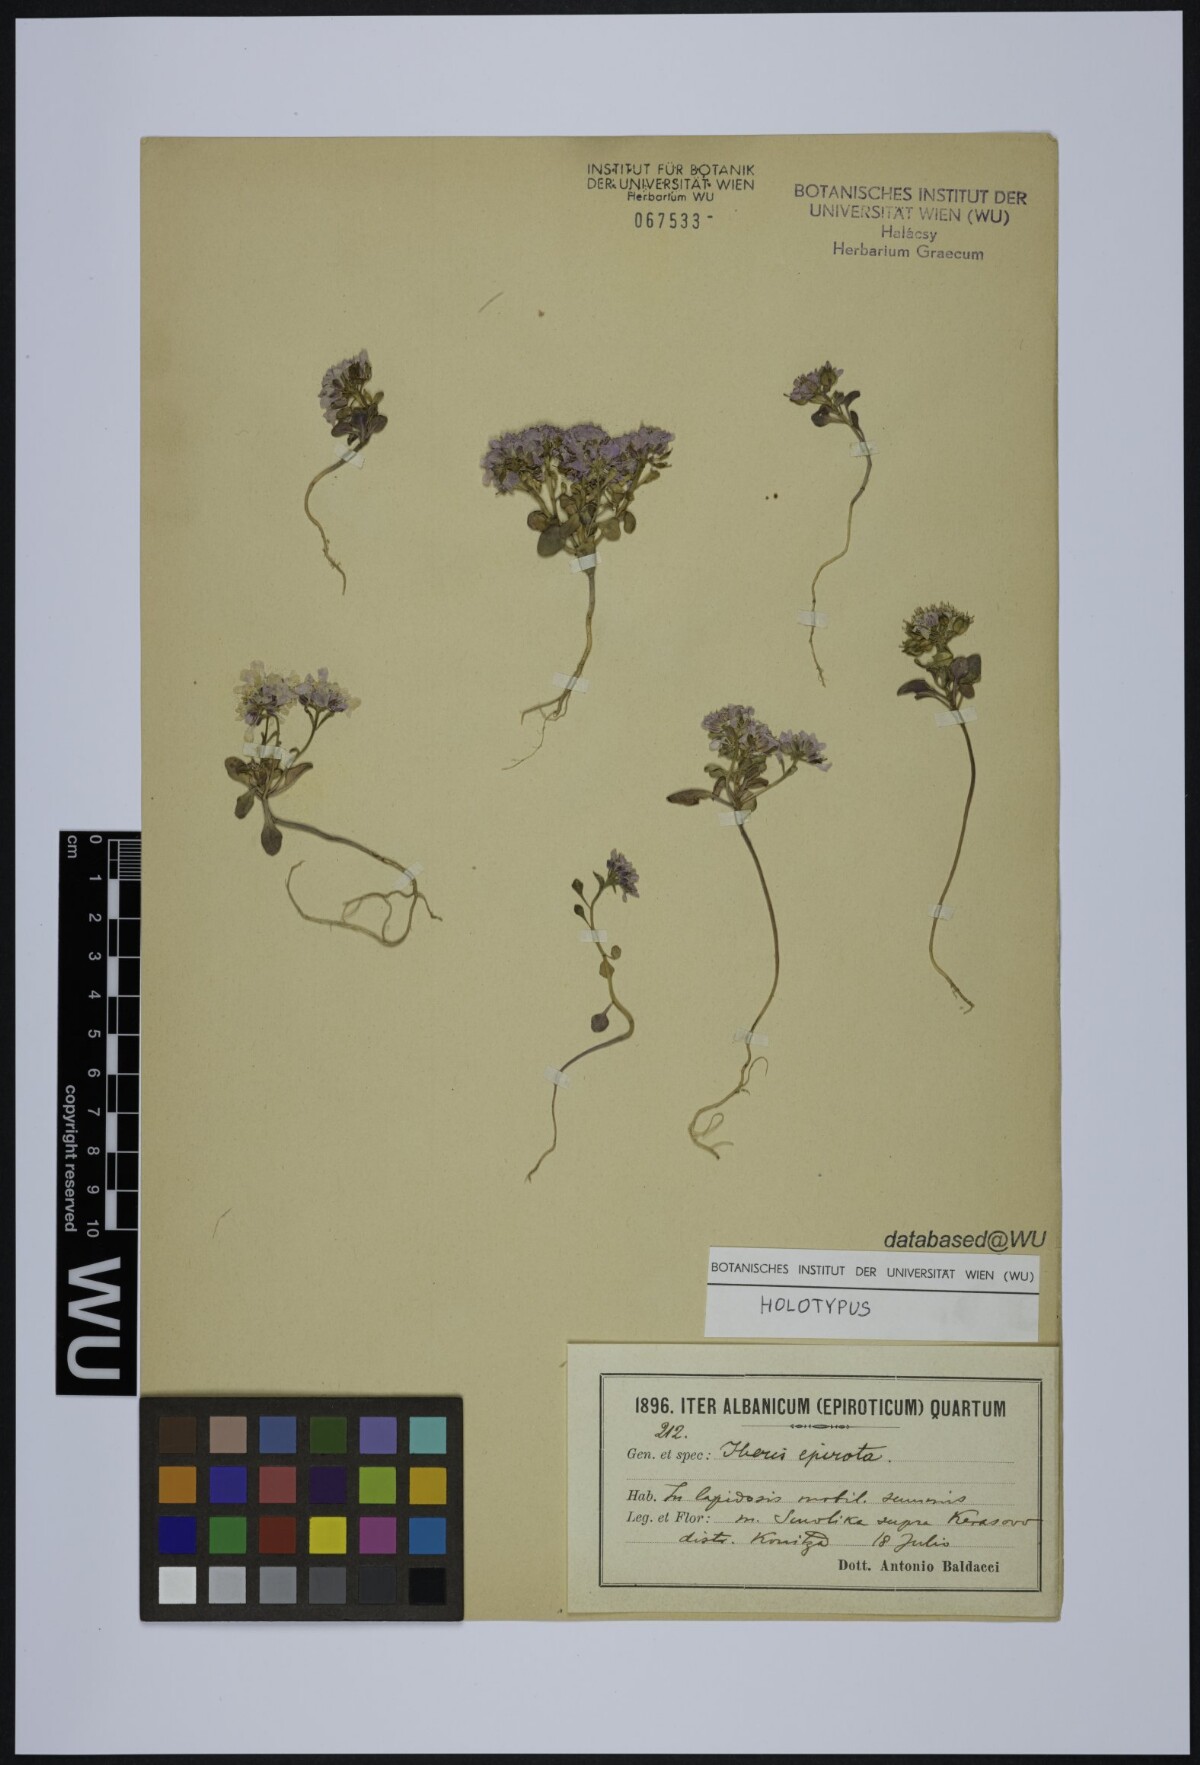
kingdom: Plantae
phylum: Tracheophyta
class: Magnoliopsida
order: Brassicales
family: Brassicaceae
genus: Iberis
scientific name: Iberis aurosica
